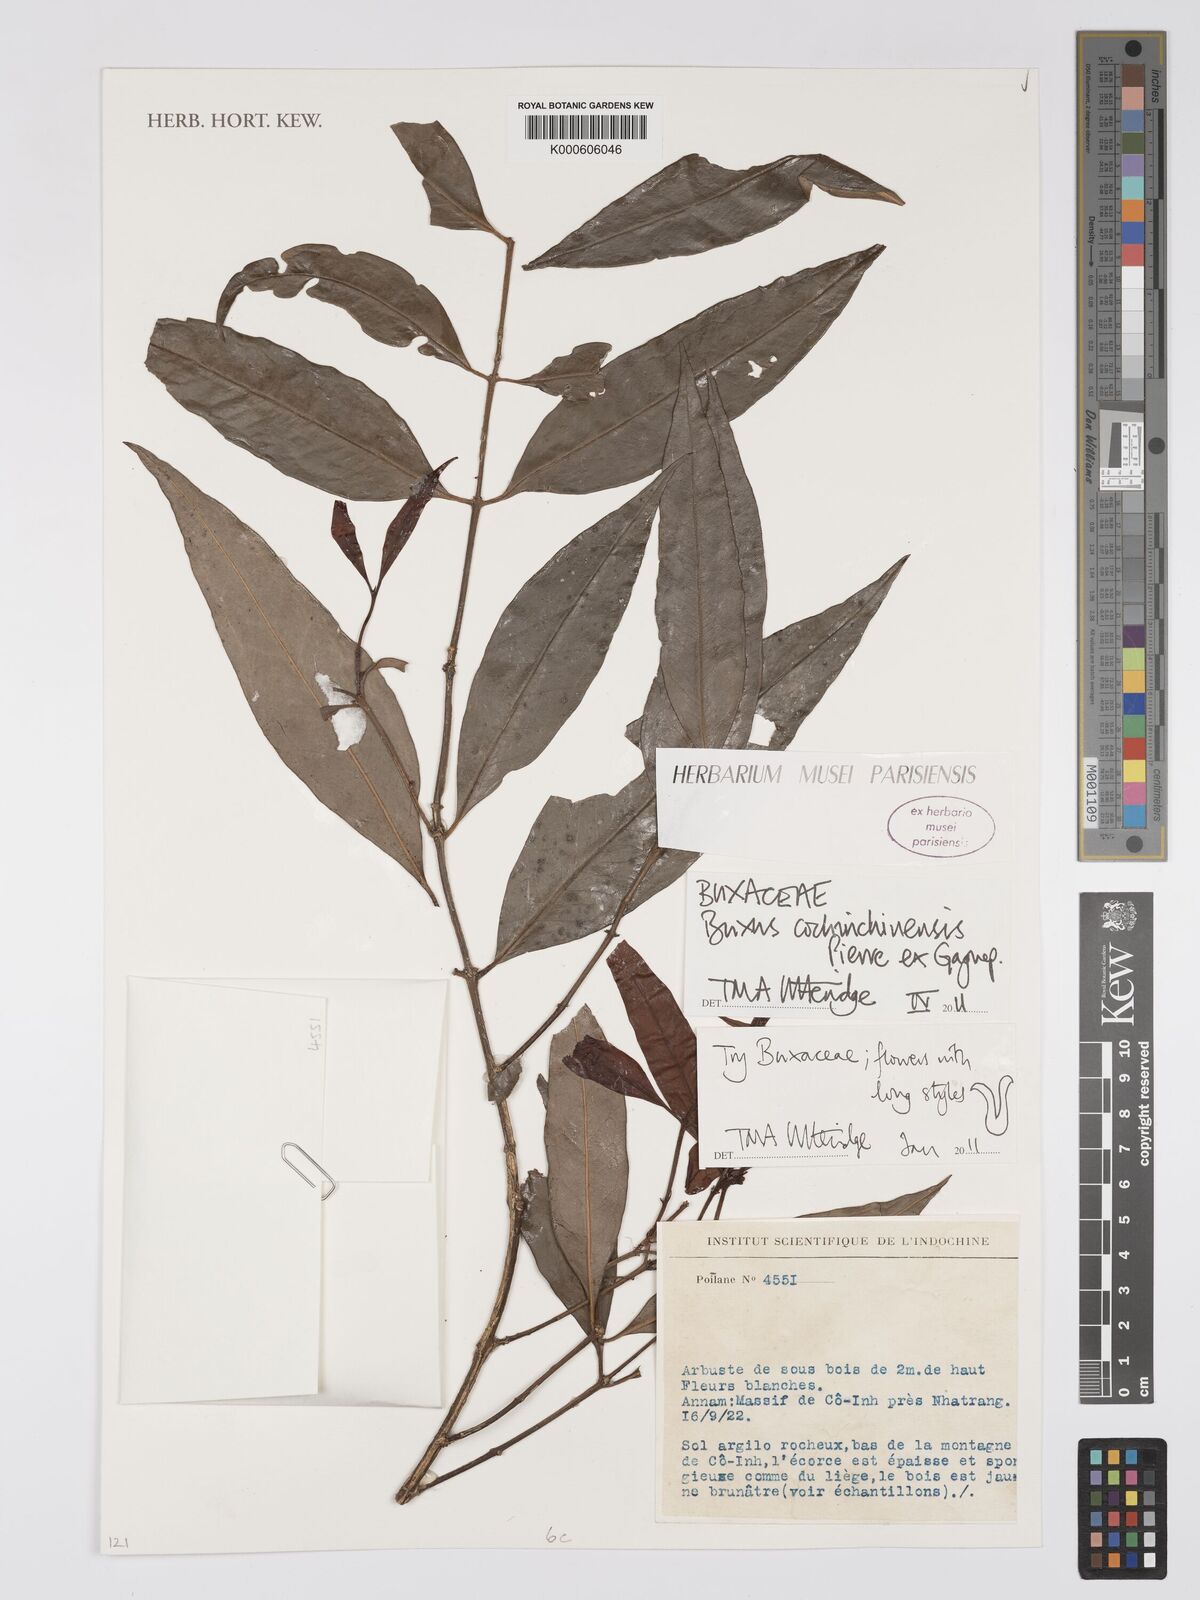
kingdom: Plantae
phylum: Tracheophyta
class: Magnoliopsida
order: Buxales
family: Buxaceae
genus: Buxus
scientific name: Buxus cochinchinensis
